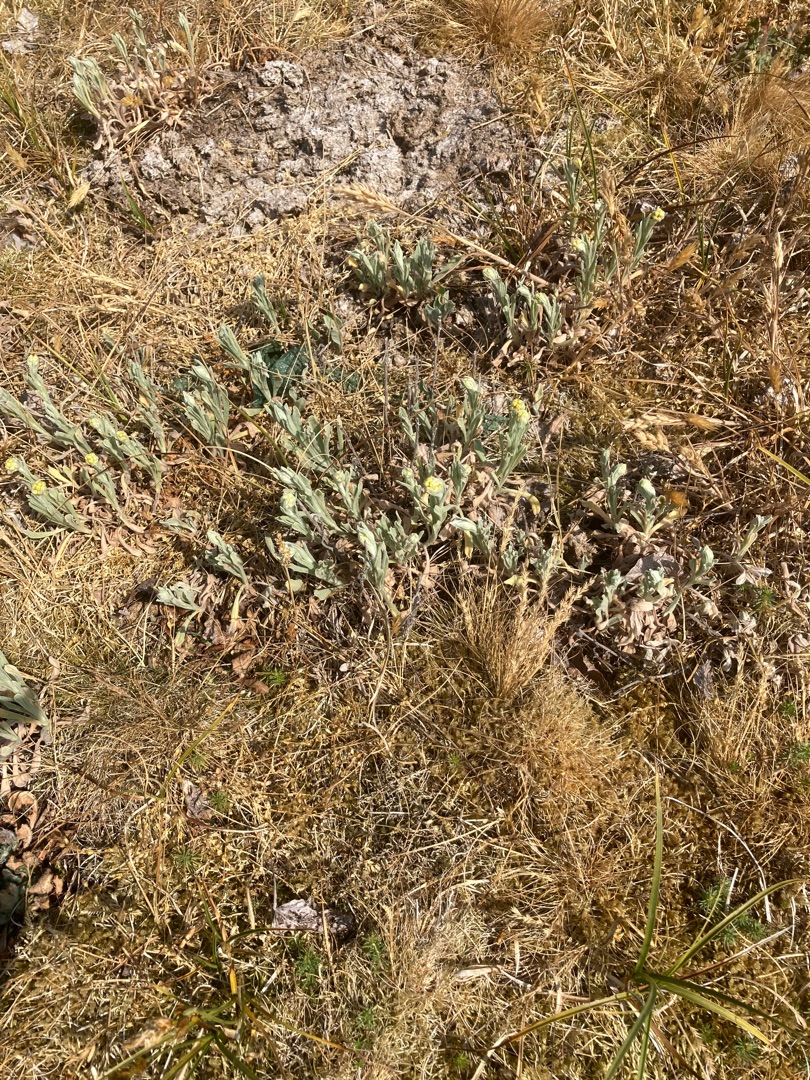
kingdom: Plantae
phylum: Tracheophyta
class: Magnoliopsida
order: Asterales
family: Asteraceae
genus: Helichrysum
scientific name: Helichrysum arenarium
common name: Gul evighedsblomst
